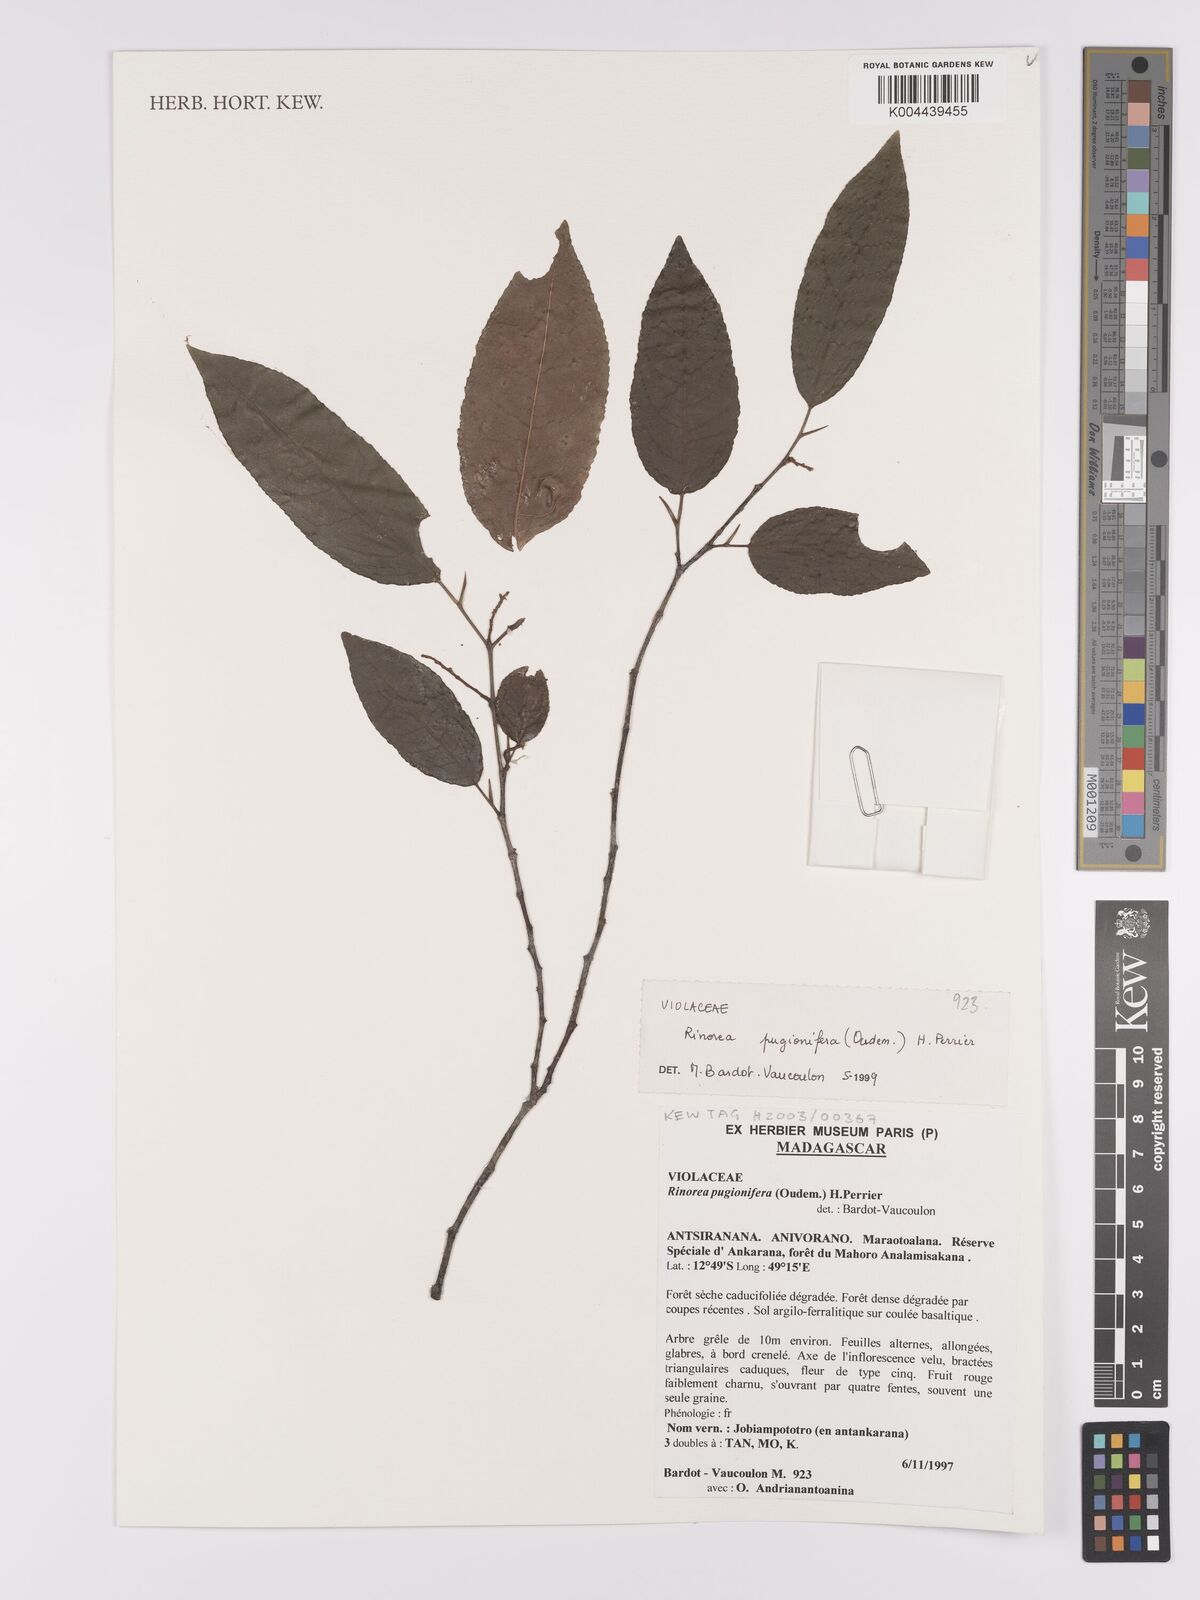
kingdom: Plantae
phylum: Tracheophyta
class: Magnoliopsida
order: Malpighiales
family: Violaceae
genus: Rinorea
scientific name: Rinorea pugionifera
